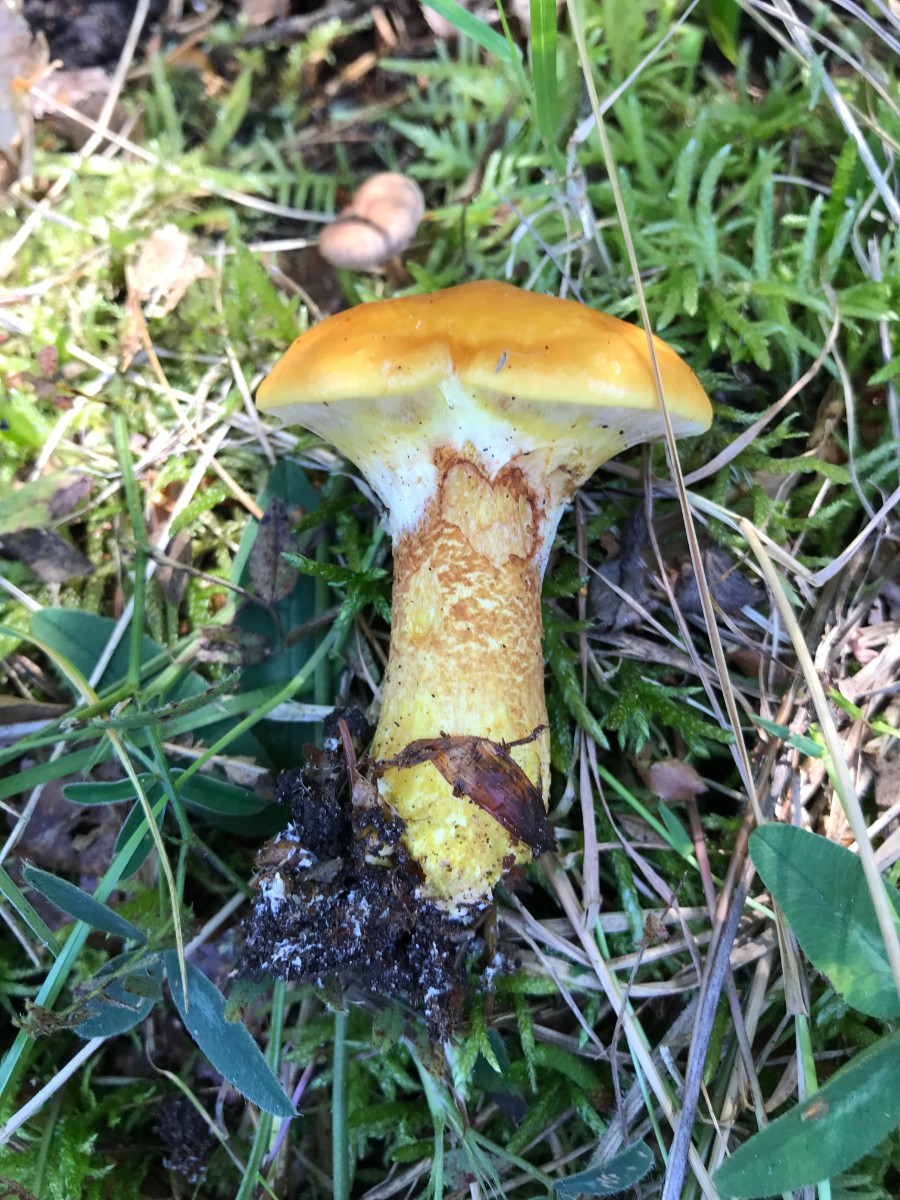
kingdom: Fungi
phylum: Basidiomycota
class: Agaricomycetes
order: Boletales
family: Suillaceae
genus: Suillus
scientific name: Suillus grevillei
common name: lærke-slimrørhat
